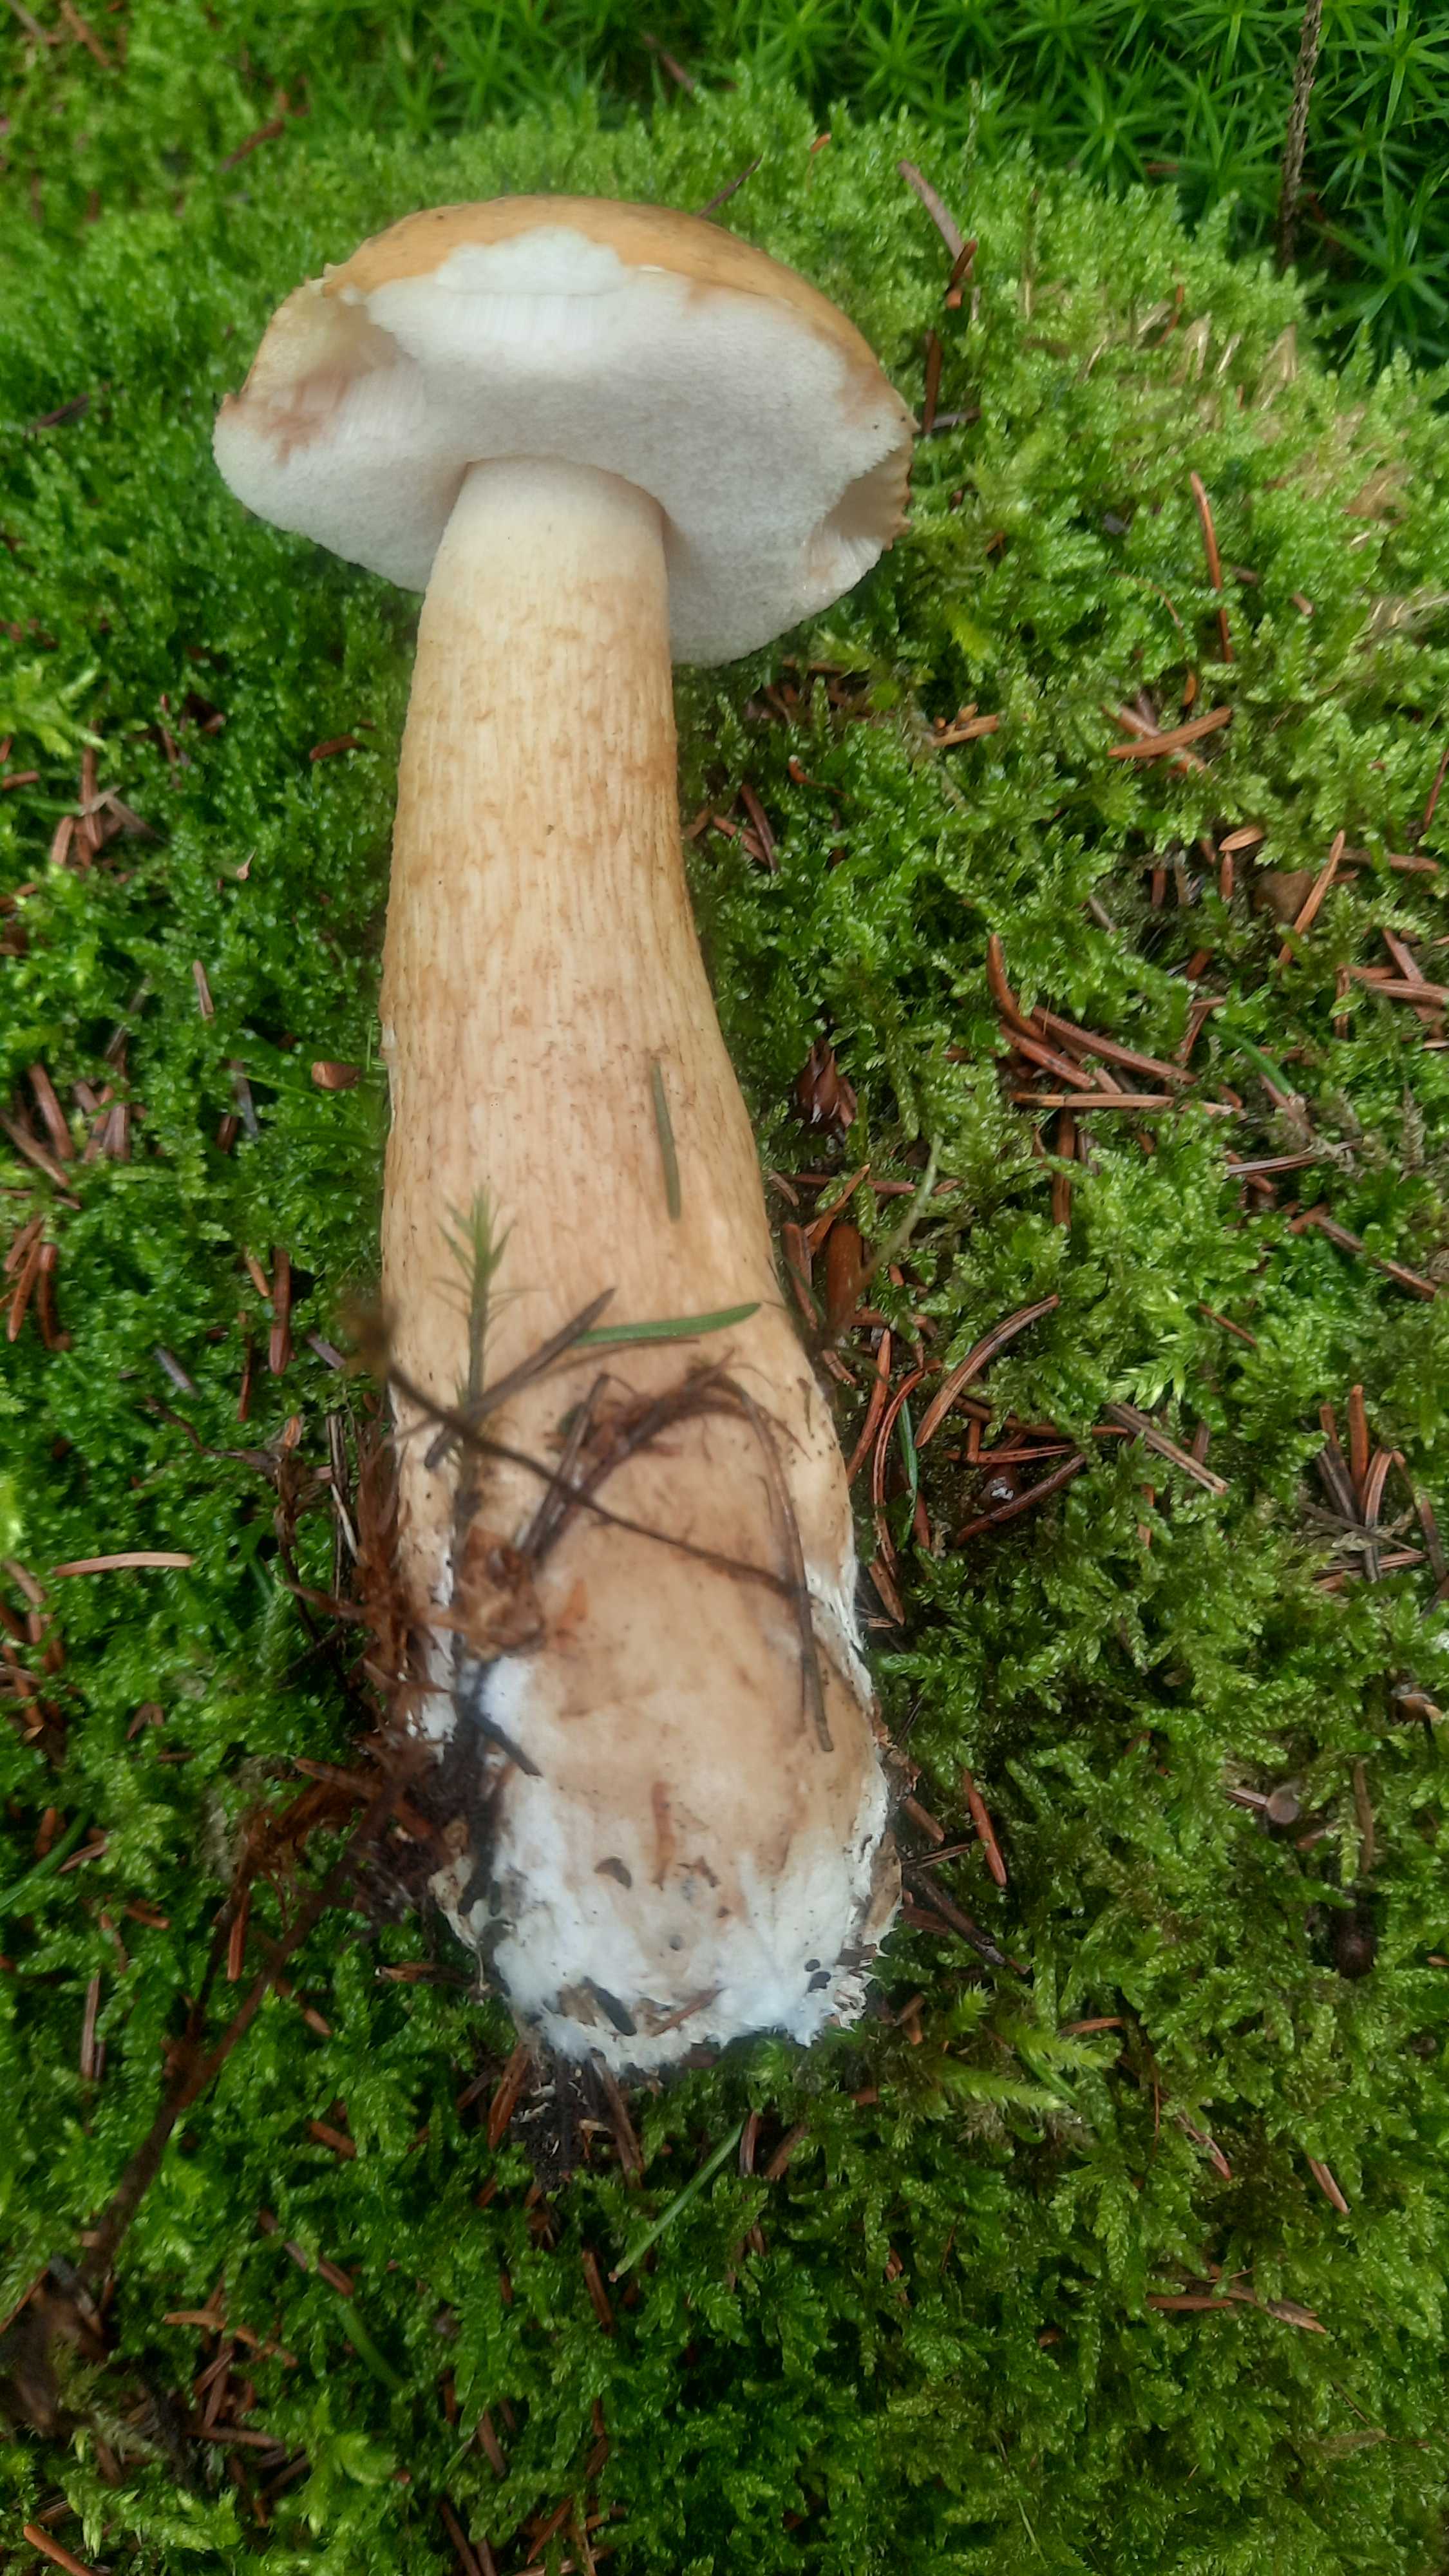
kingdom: Fungi
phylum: Basidiomycota
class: Agaricomycetes
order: Boletales
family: Boletaceae
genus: Tylopilus
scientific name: Tylopilus felleus
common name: galderørhat
